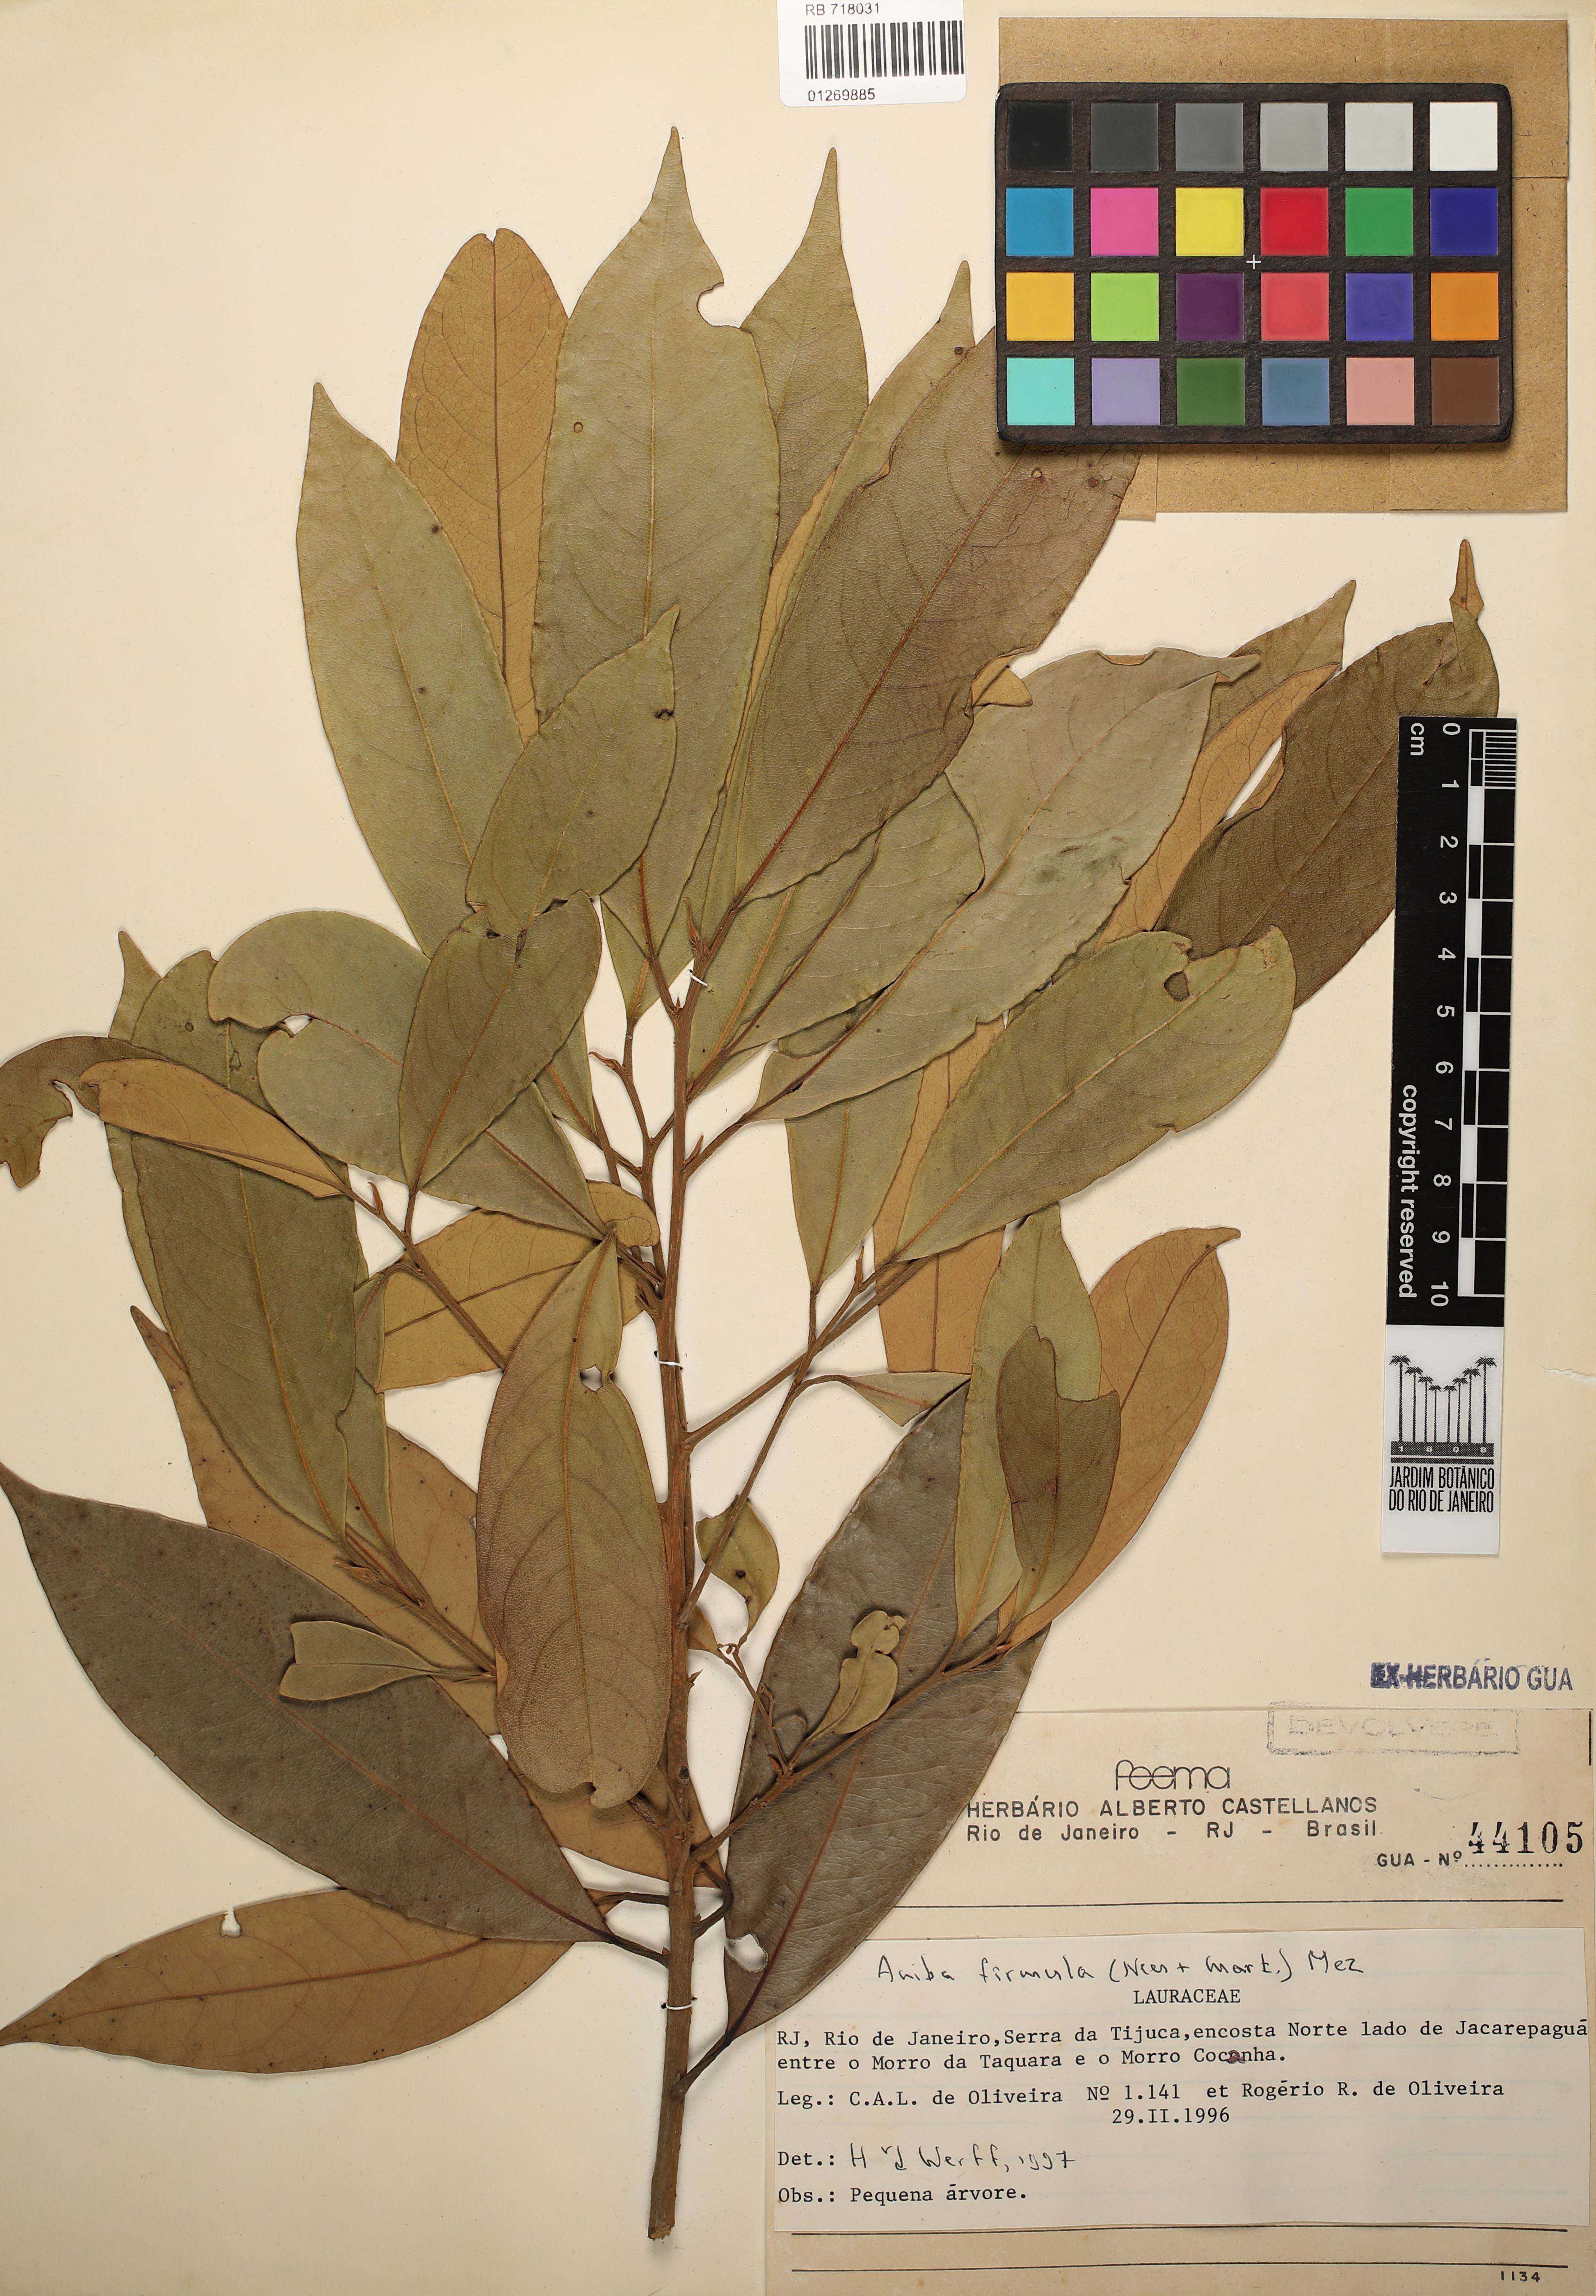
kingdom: Plantae
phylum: Tracheophyta
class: Magnoliopsida
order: Laurales
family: Lauraceae
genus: Aniba
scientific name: Aniba firmula
